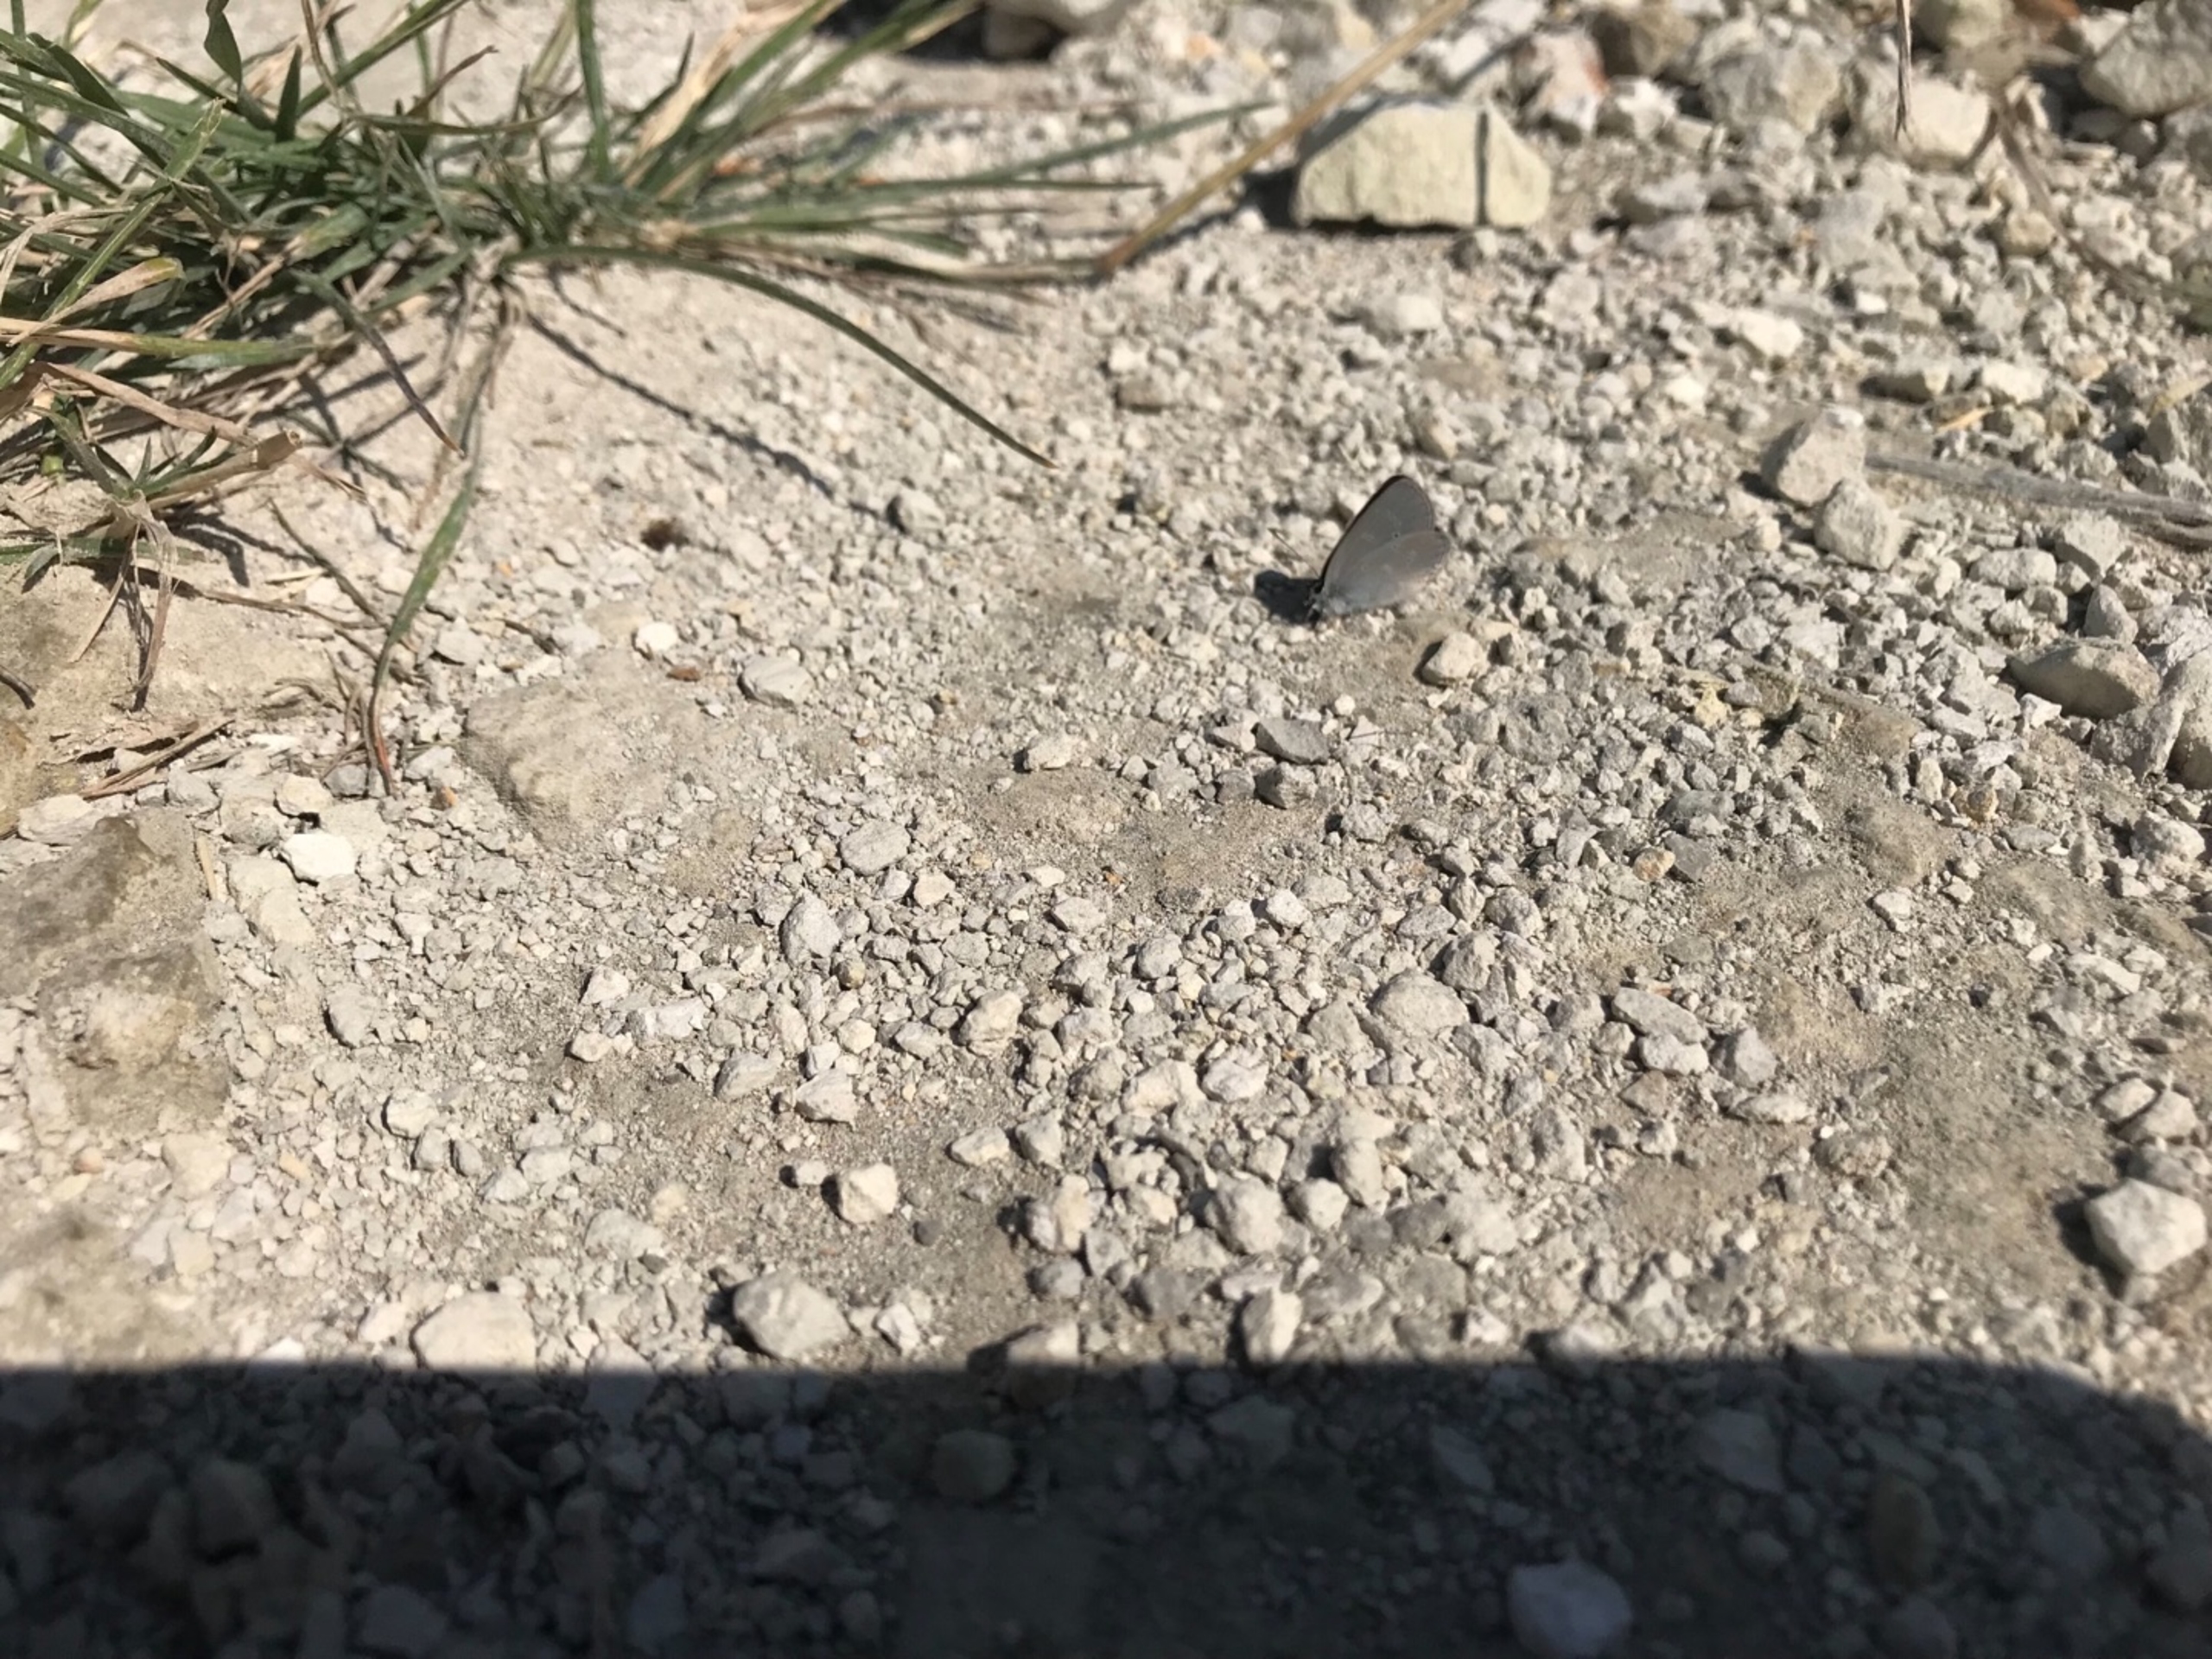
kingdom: Animalia
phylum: Arthropoda
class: Insecta
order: Lepidoptera
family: Lycaenidae
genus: Cupido
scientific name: Cupido minimus
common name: Dværgblåfugl
